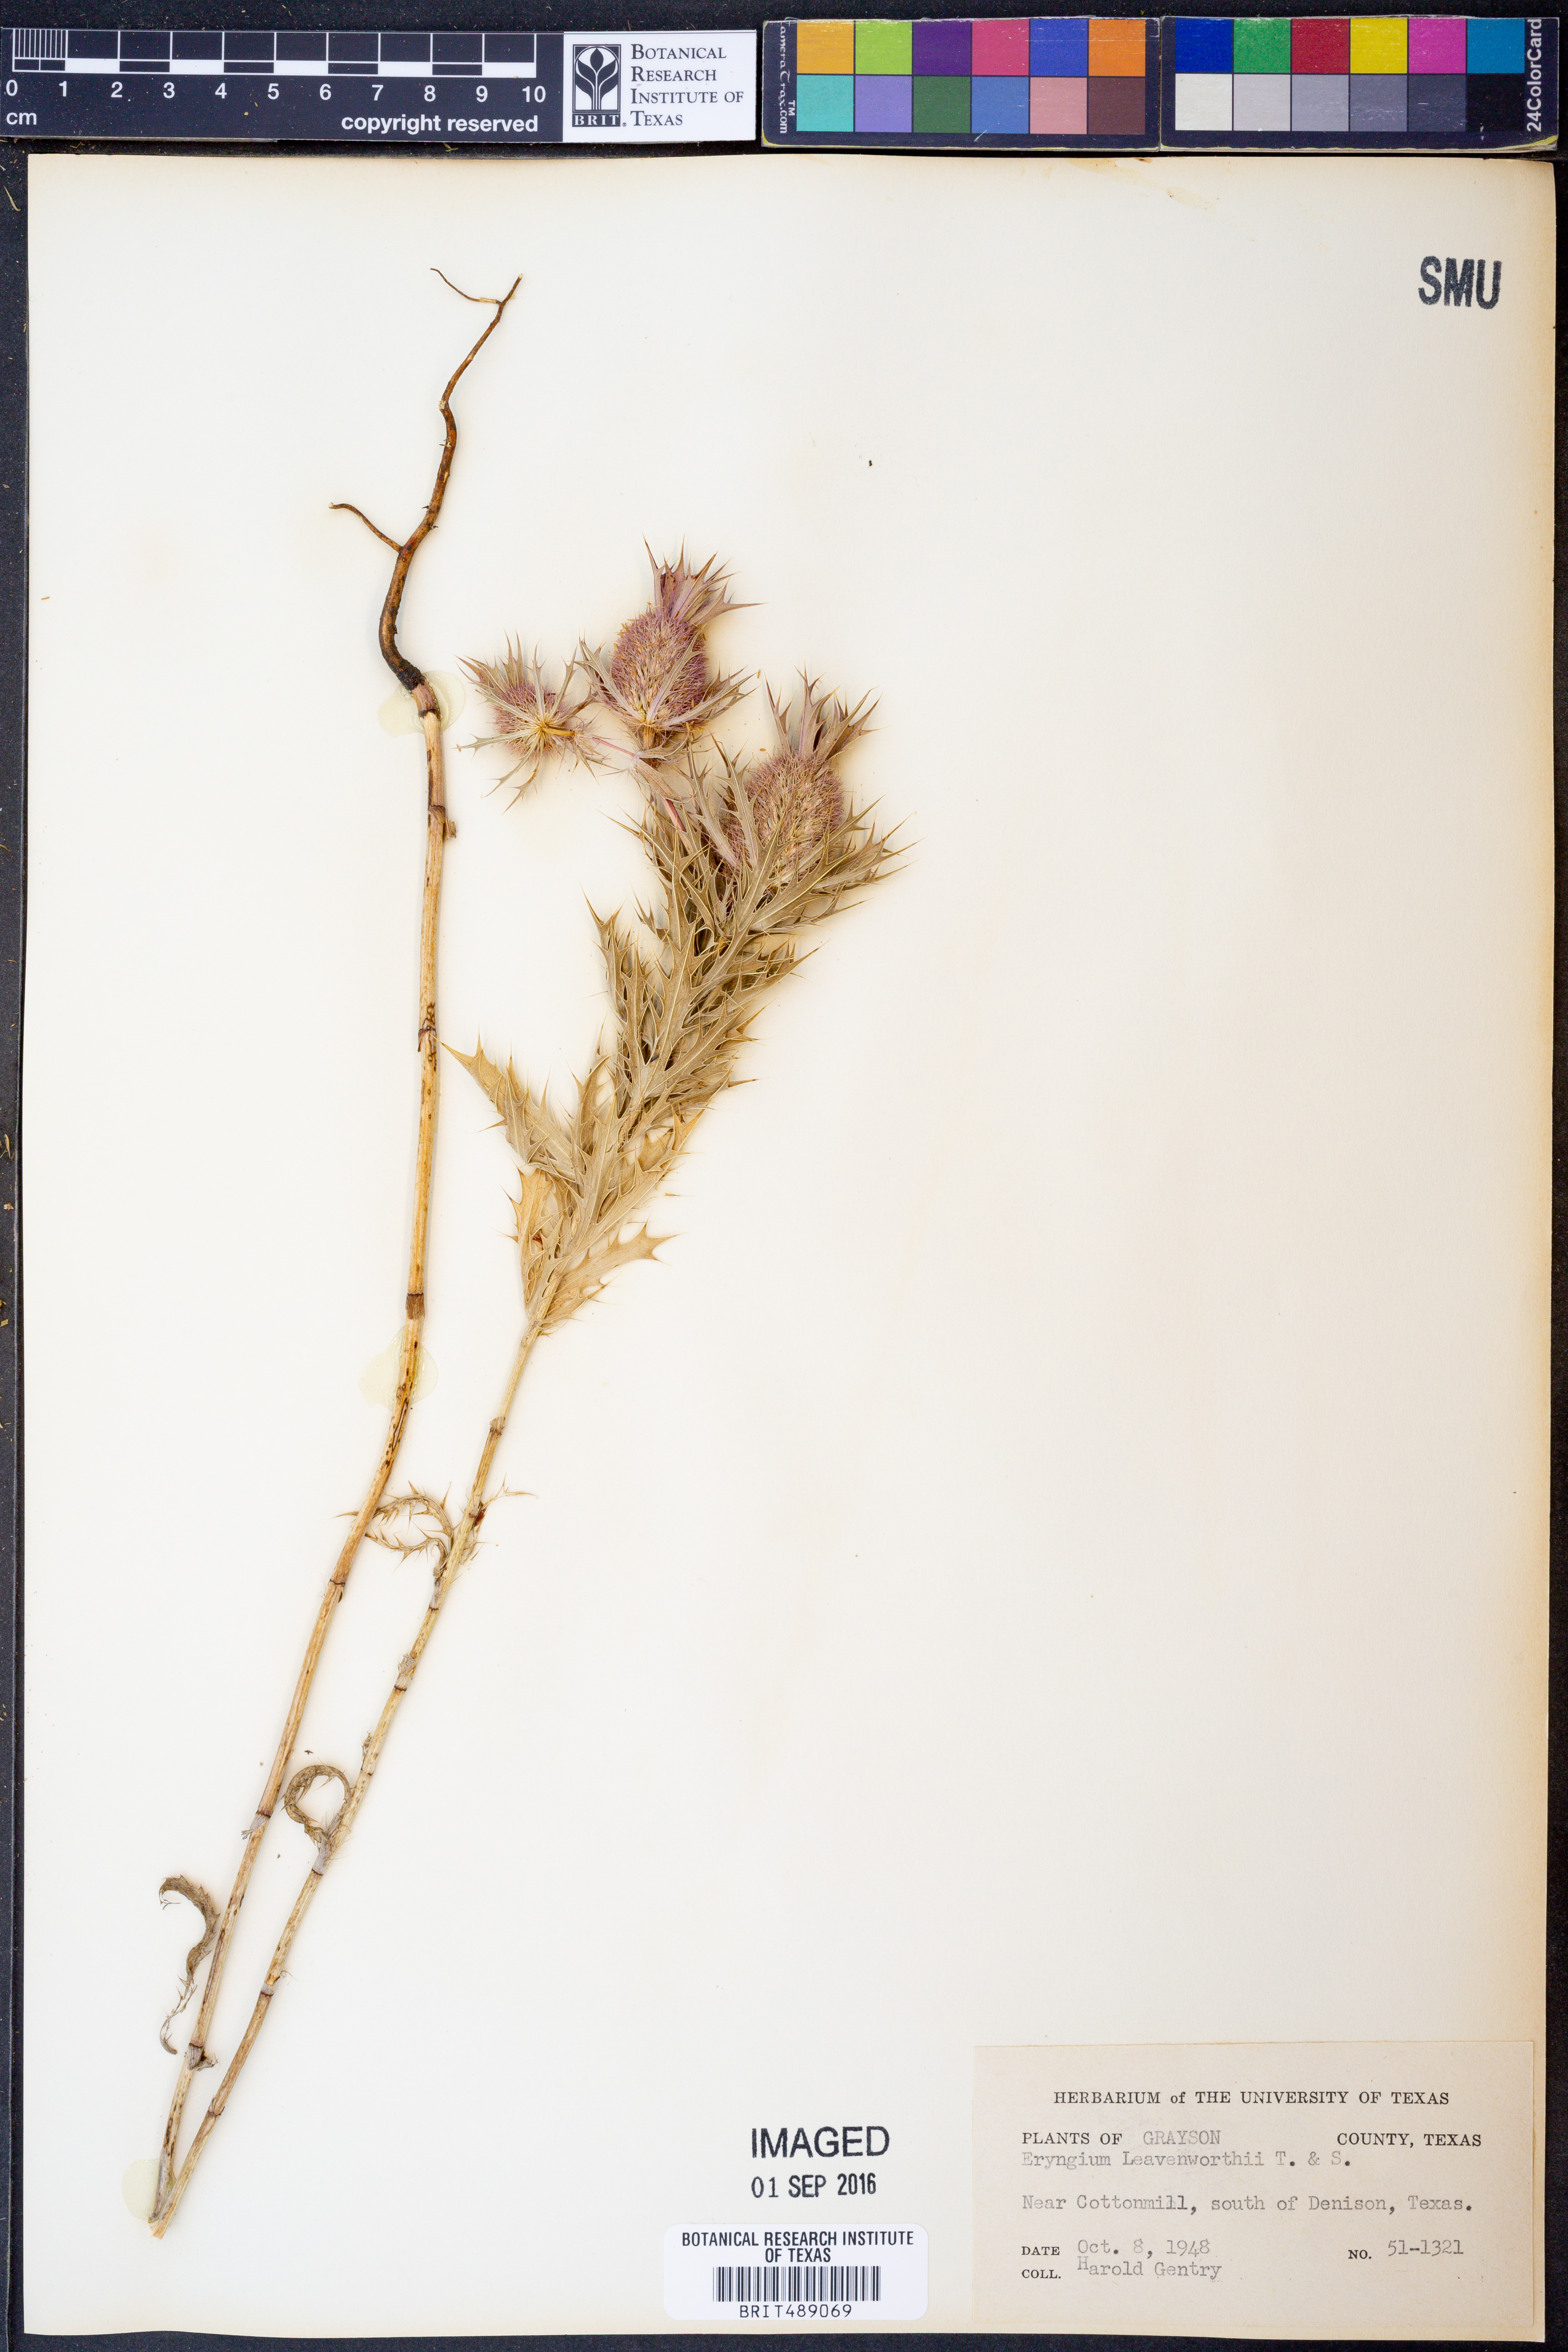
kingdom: Plantae
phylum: Tracheophyta
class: Magnoliopsida
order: Apiales
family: Apiaceae
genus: Eryngium
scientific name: Eryngium leavenworthii
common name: Leavenworth's eryngo
